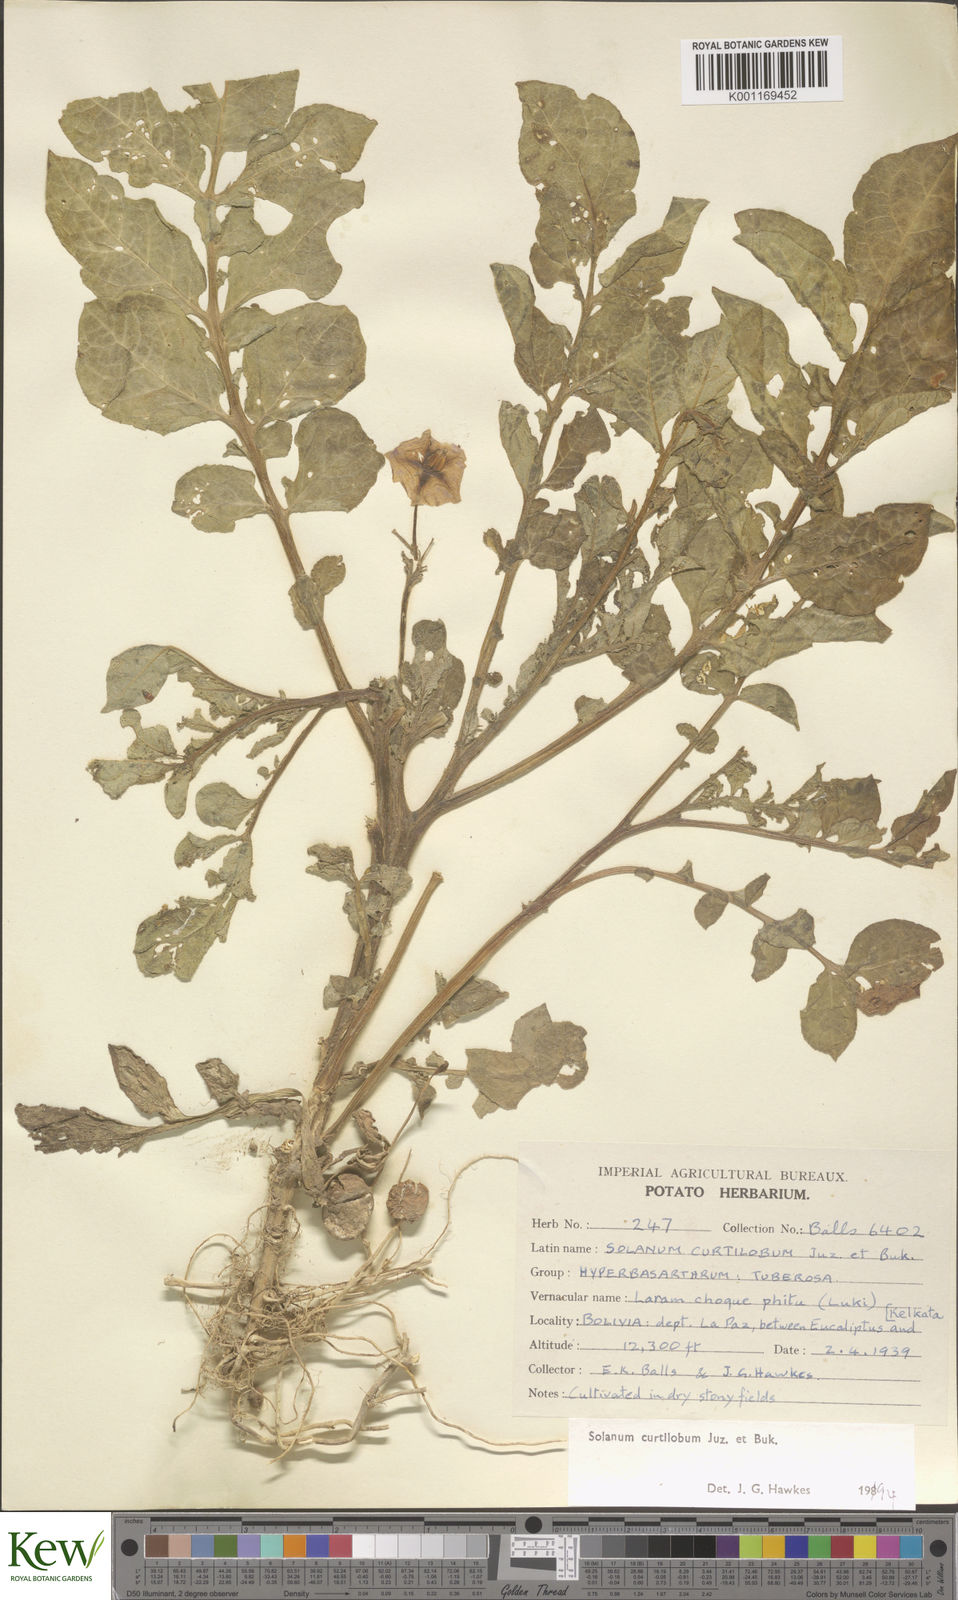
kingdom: Plantae
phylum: Tracheophyta
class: Magnoliopsida
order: Solanales
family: Solanaceae
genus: Solanum
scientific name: Solanum curtilobum
